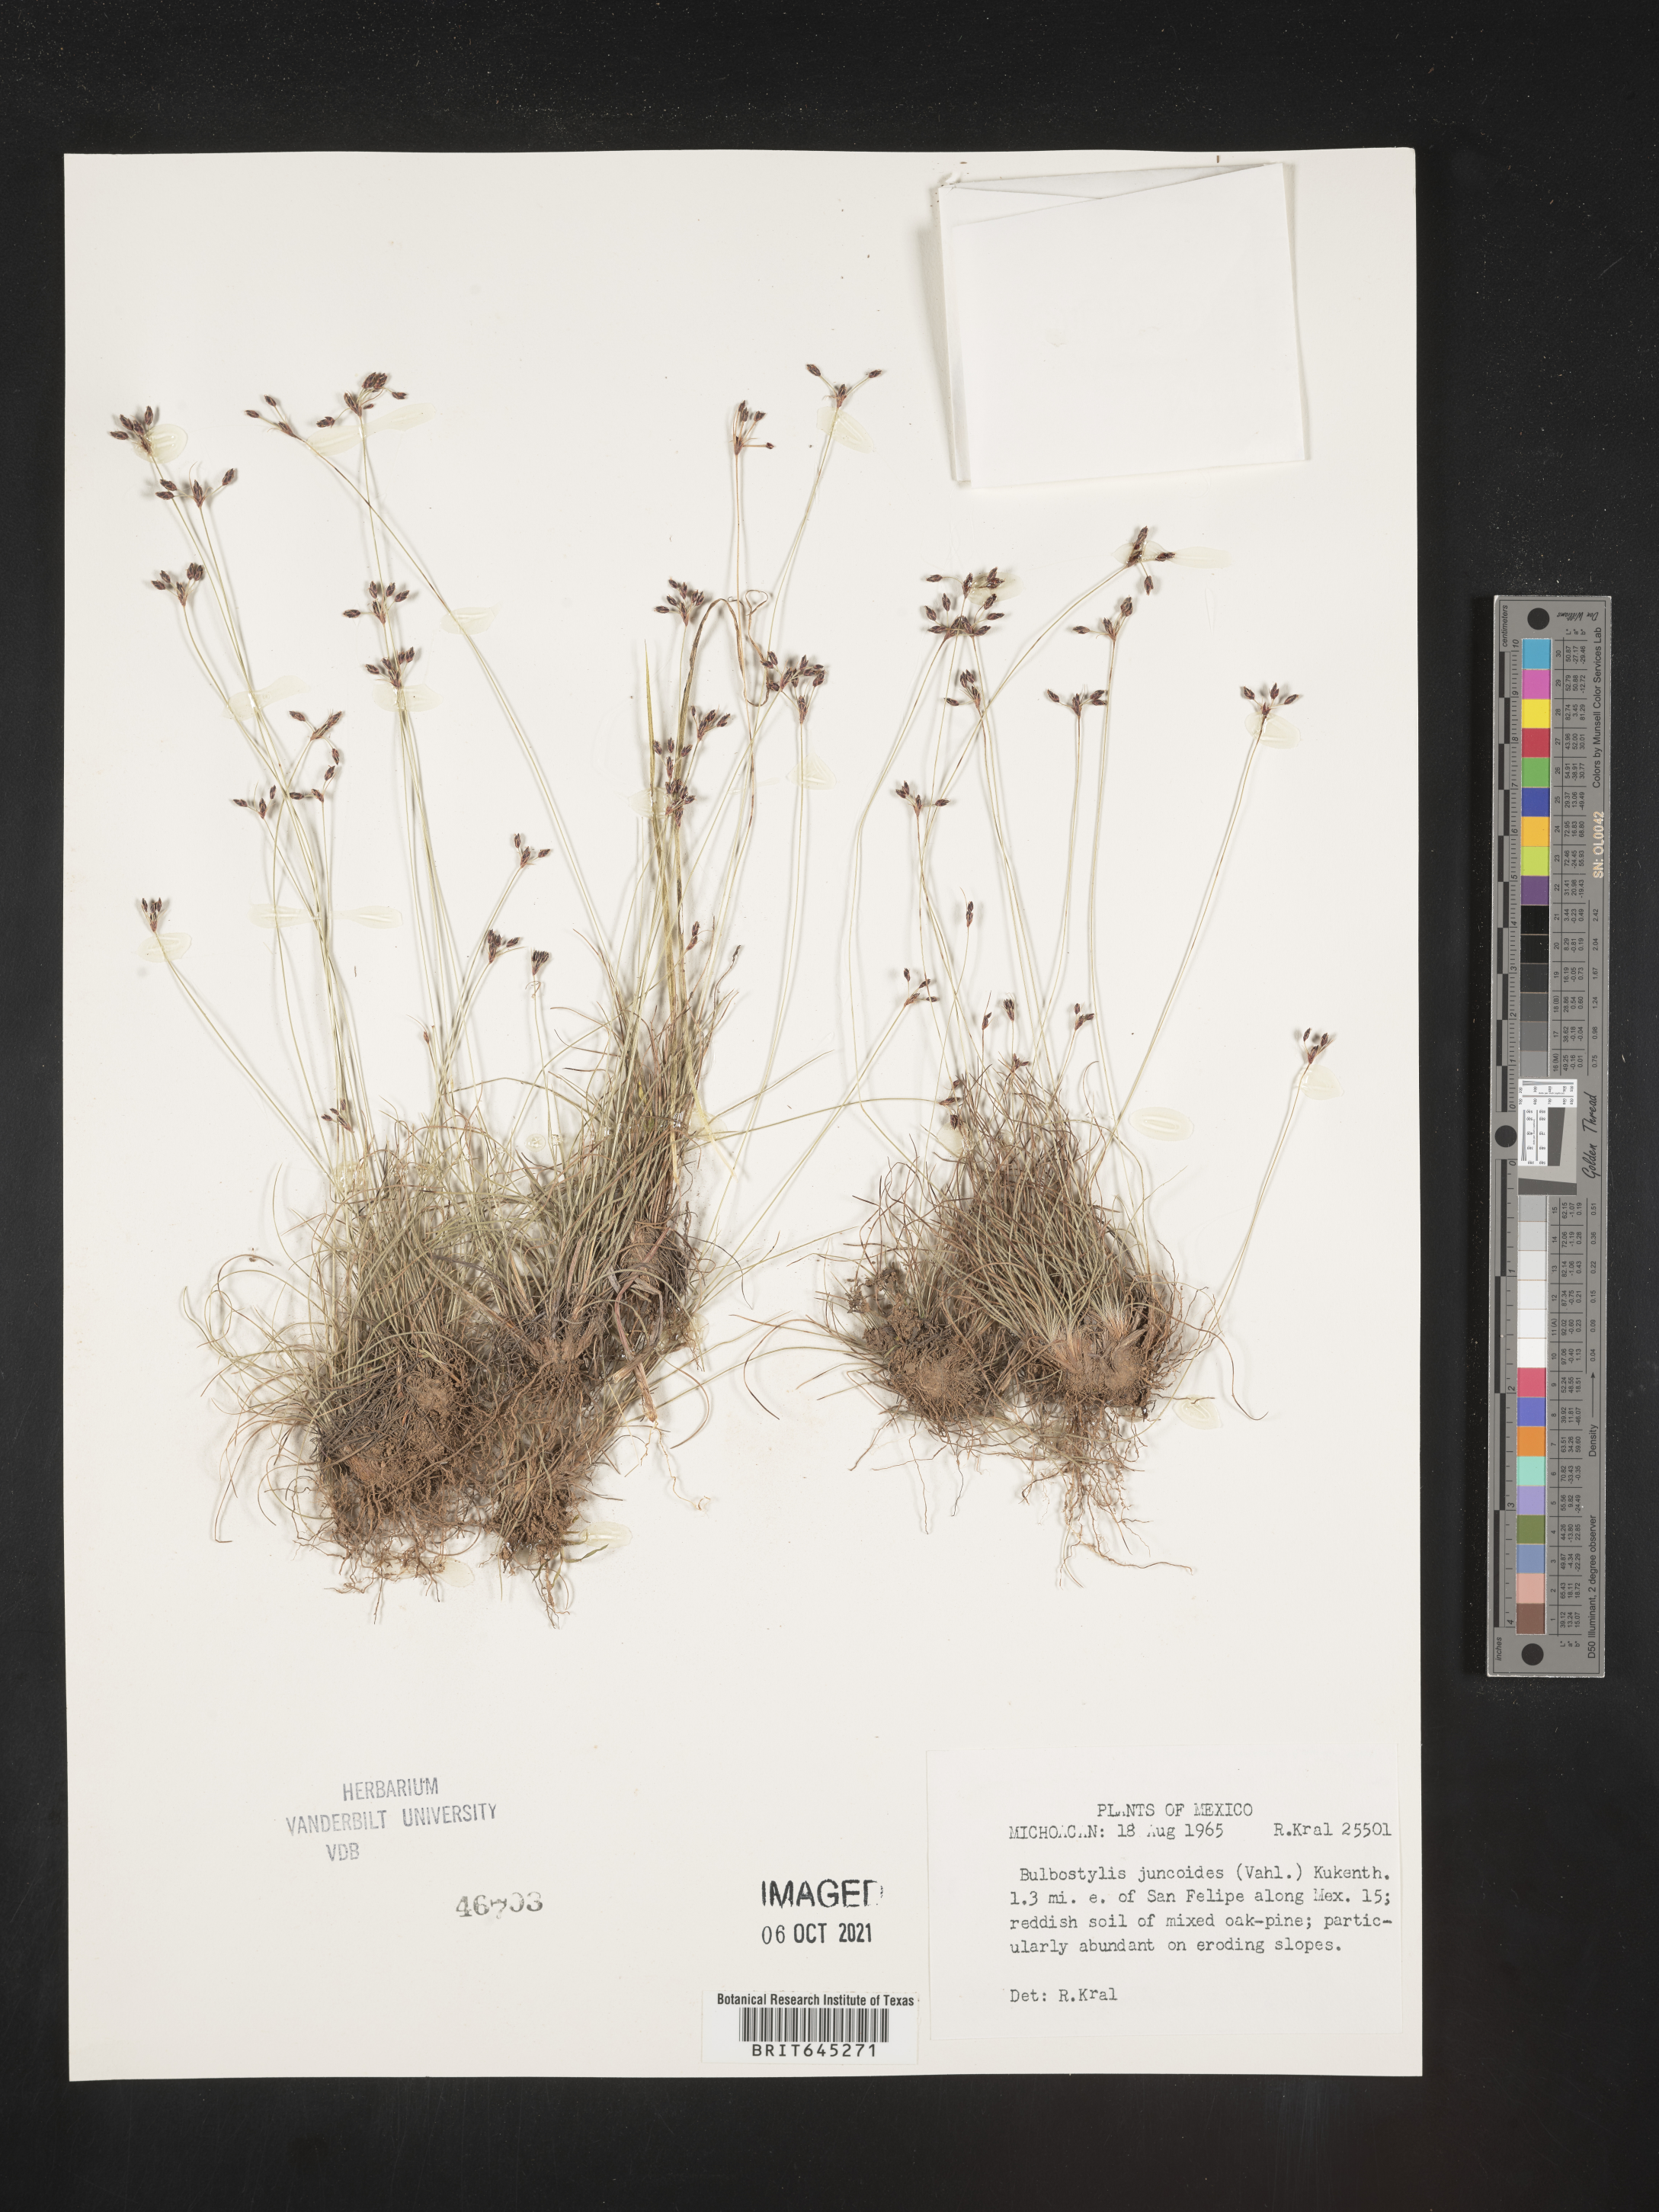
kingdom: Plantae
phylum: Tracheophyta
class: Liliopsida
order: Poales
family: Cyperaceae
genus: Bulbostylis
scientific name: Bulbostylis juncoides
